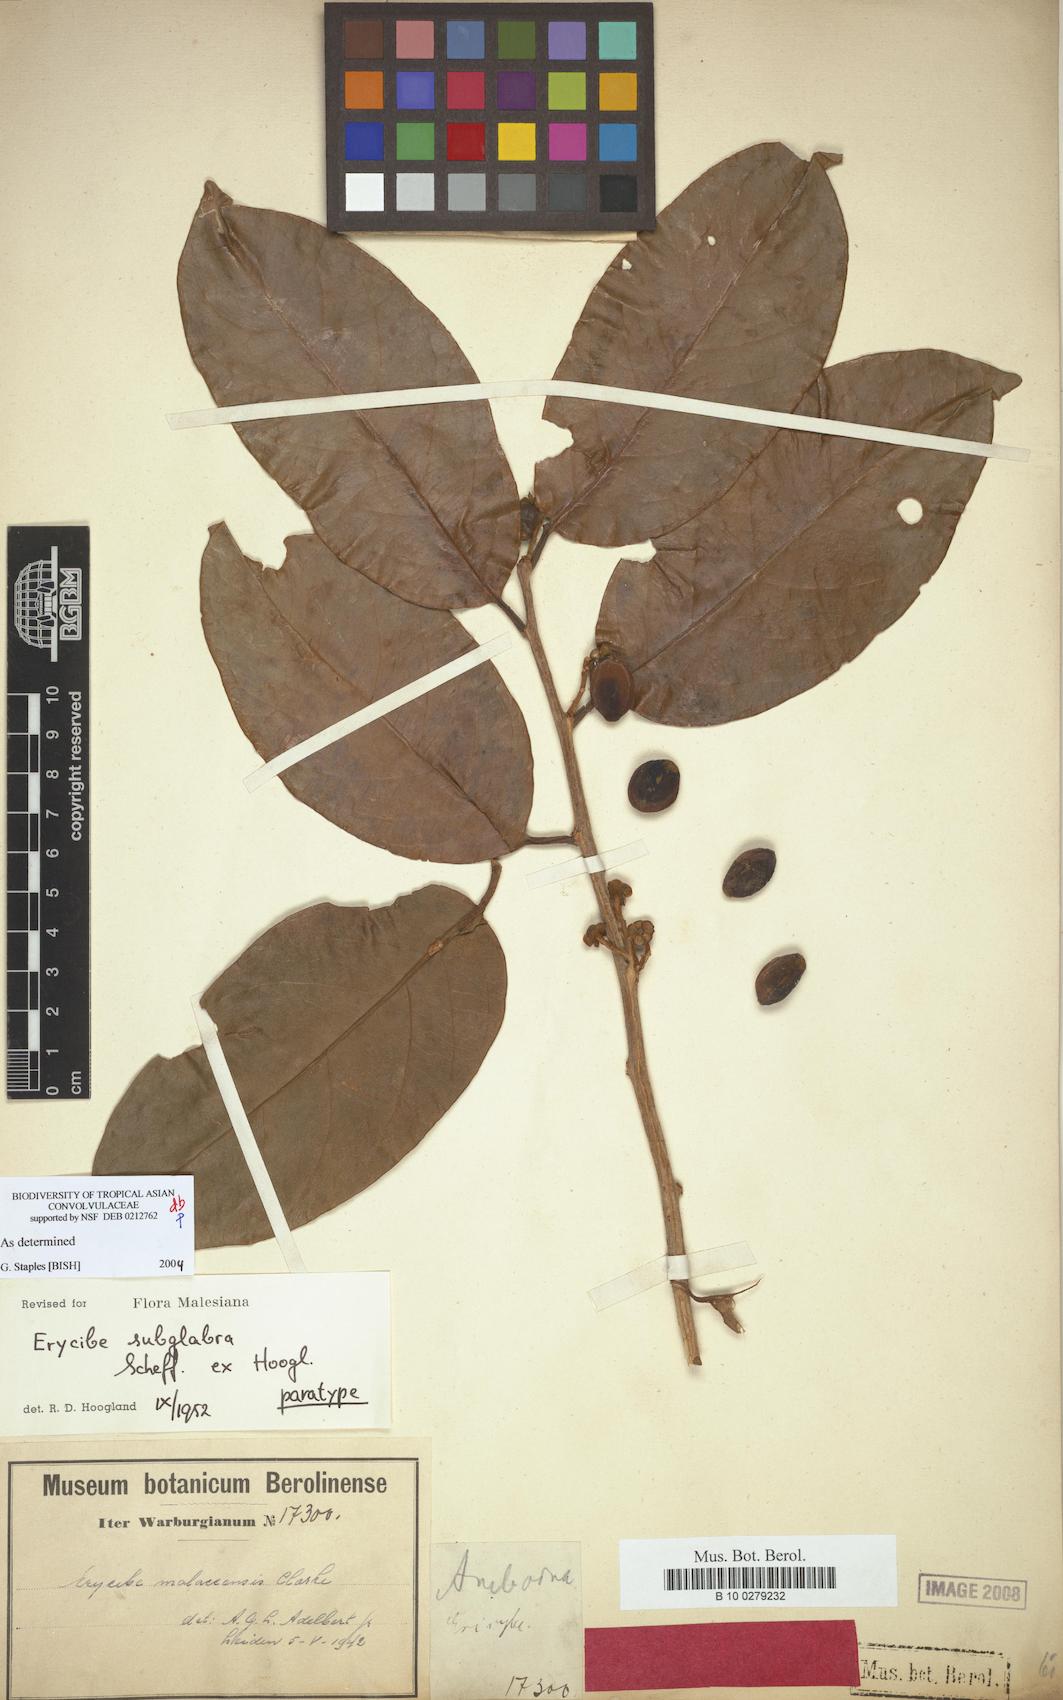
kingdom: Plantae
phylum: Tracheophyta
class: Magnoliopsida
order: Solanales
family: Convolvulaceae
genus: Erycibe
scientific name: Erycibe subglabra
